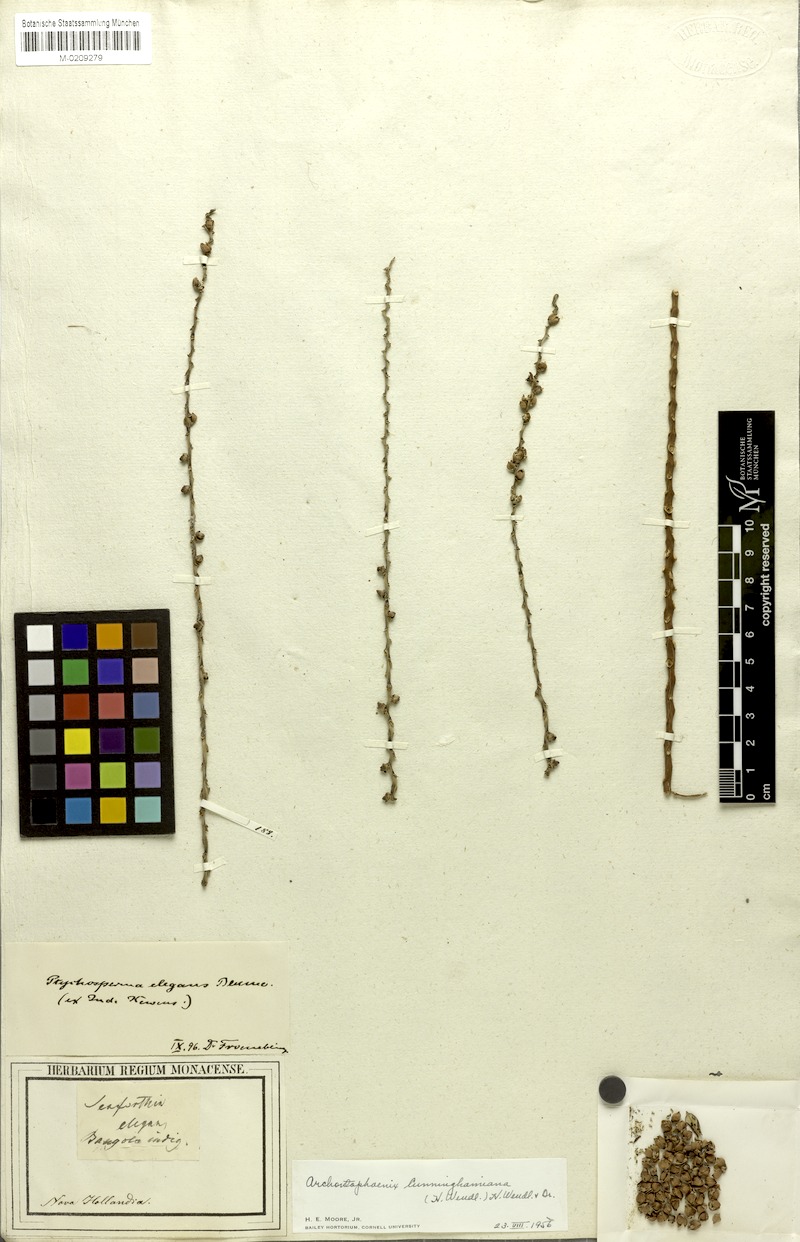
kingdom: Plantae
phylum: Tracheophyta
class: Liliopsida
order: Arecales
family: Arecaceae
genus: Archontophoenix
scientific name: Archontophoenix cunninghamiana
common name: Piccabeen bangalow palm
